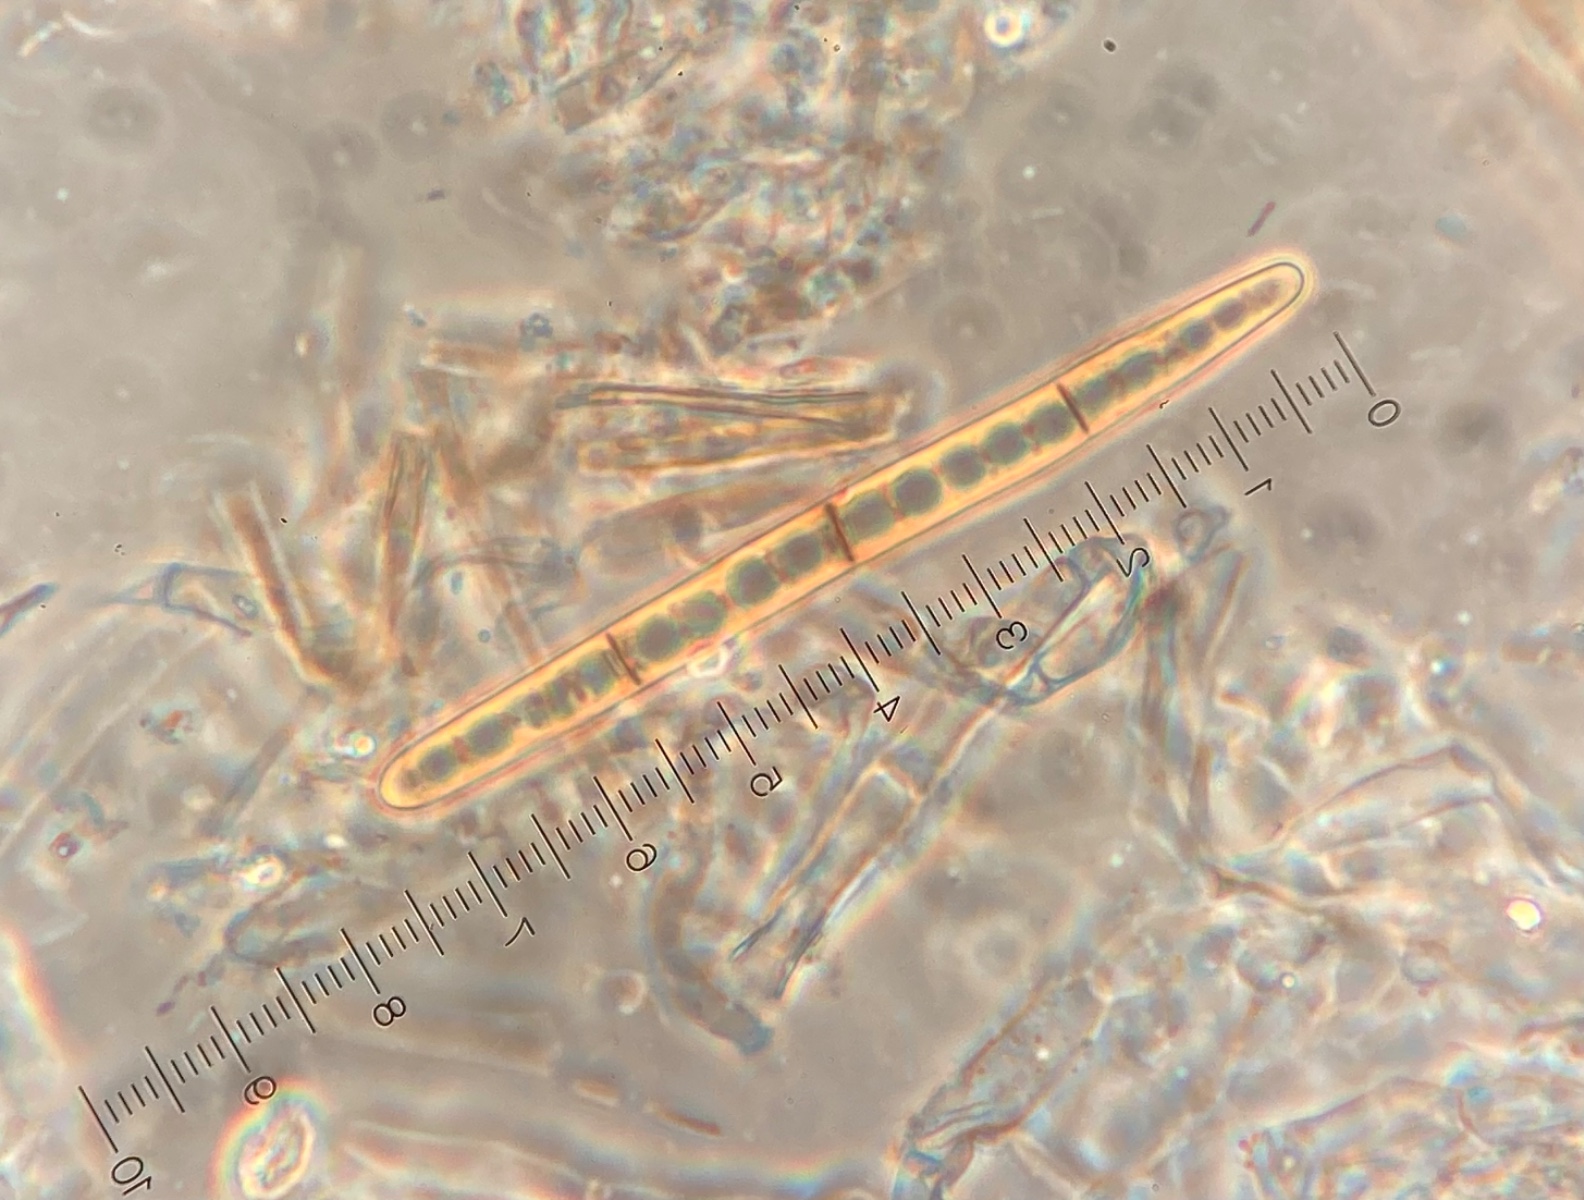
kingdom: Fungi
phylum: Ascomycota
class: Geoglossomycetes
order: Geoglossales
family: Geoglossaceae
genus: Glutinoglossum
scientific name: Glutinoglossum
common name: jordtunge
